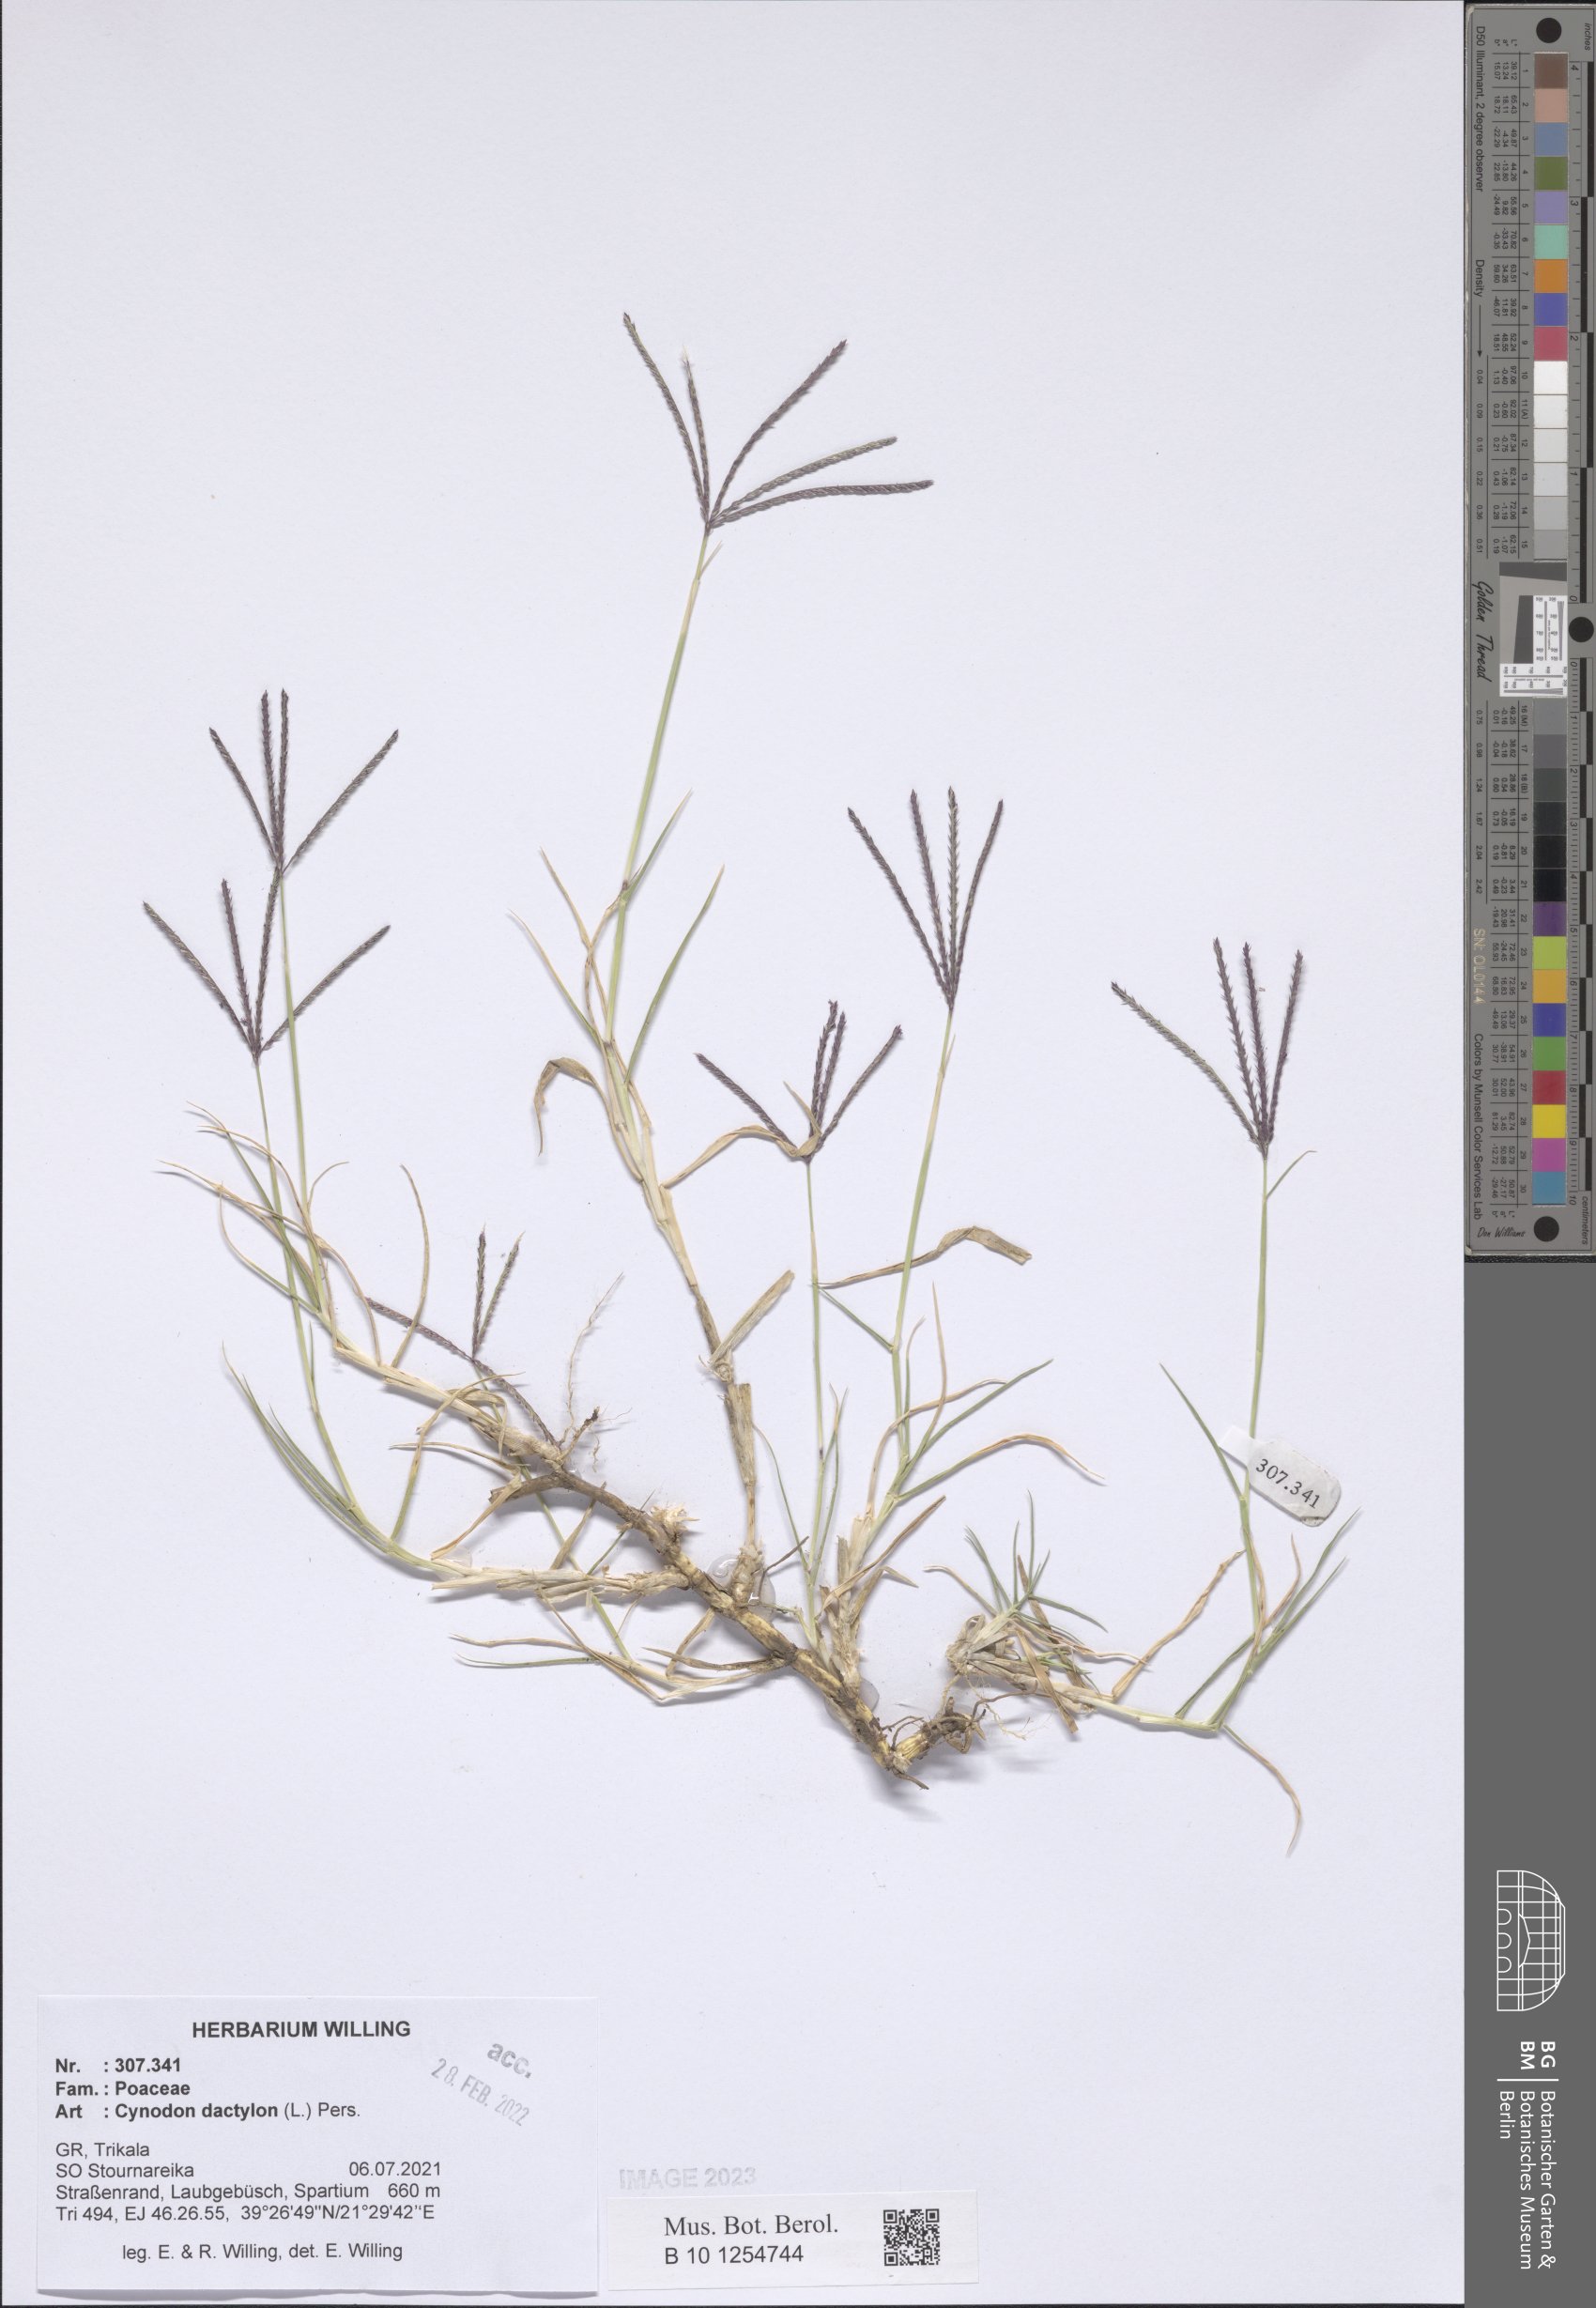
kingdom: Plantae
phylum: Tracheophyta
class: Liliopsida
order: Poales
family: Poaceae
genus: Cynodon
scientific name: Cynodon dactylon
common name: Bermuda grass
